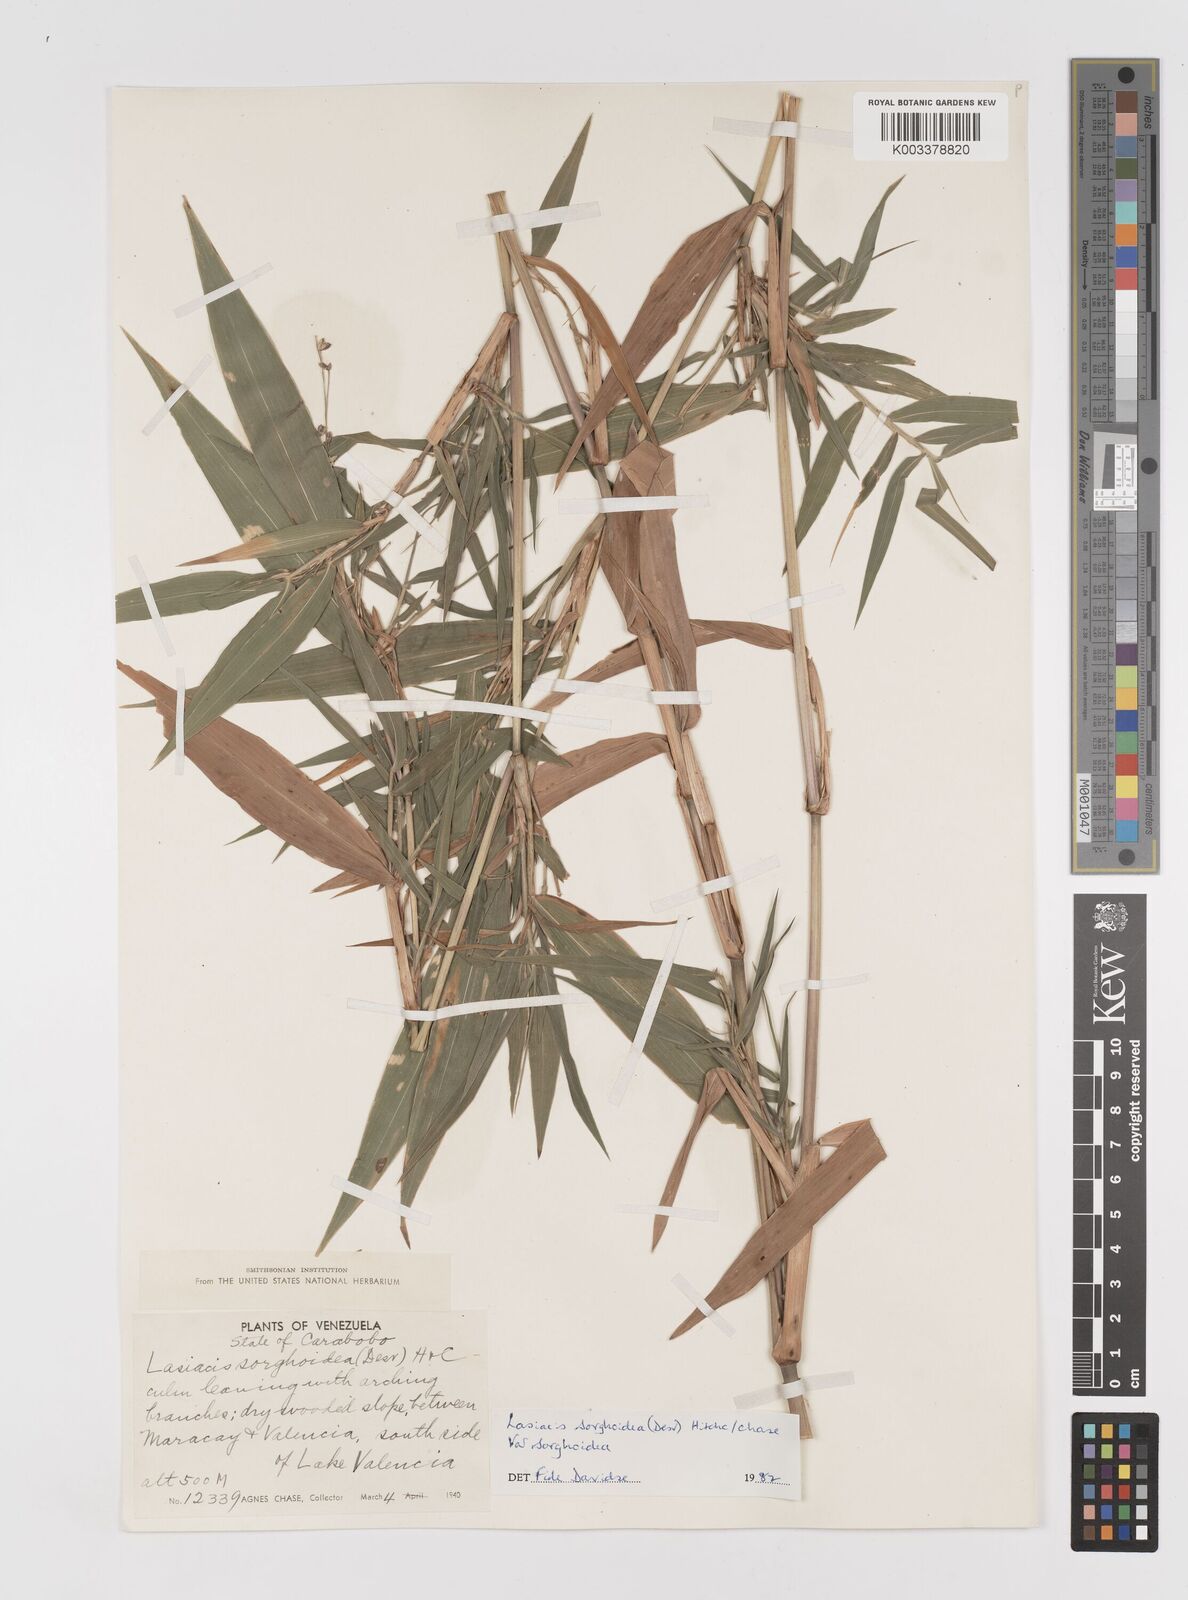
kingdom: Plantae
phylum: Tracheophyta
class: Liliopsida
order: Poales
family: Poaceae
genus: Lasiacis
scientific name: Lasiacis maculata
